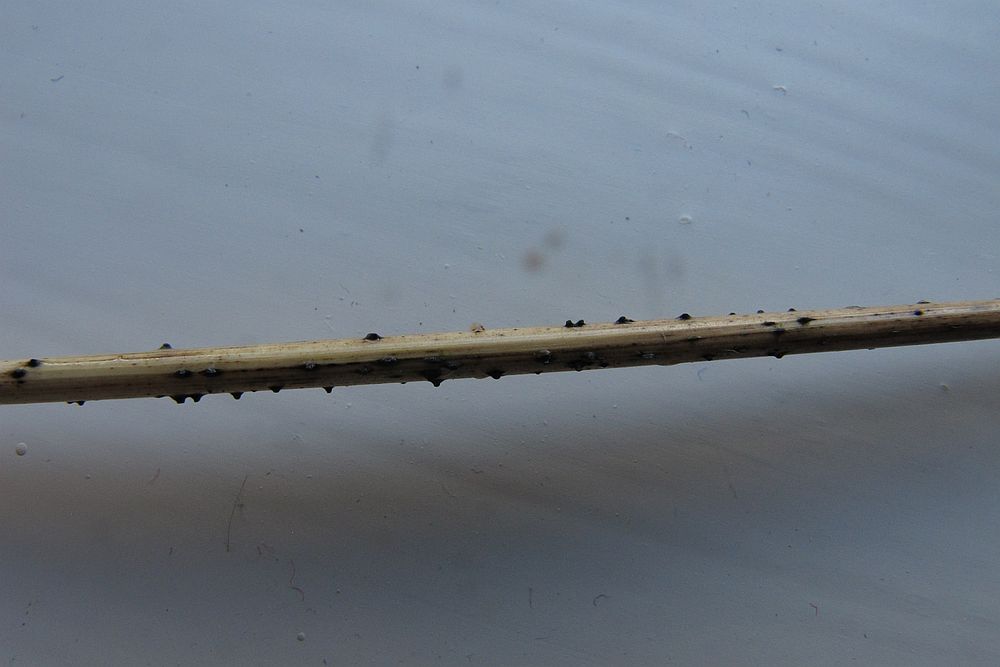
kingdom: Fungi
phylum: Ascomycota
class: Dothideomycetes
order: Pleosporales
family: Lophiostomataceae
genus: Lophiostoma
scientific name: Lophiostoma semiliberum
